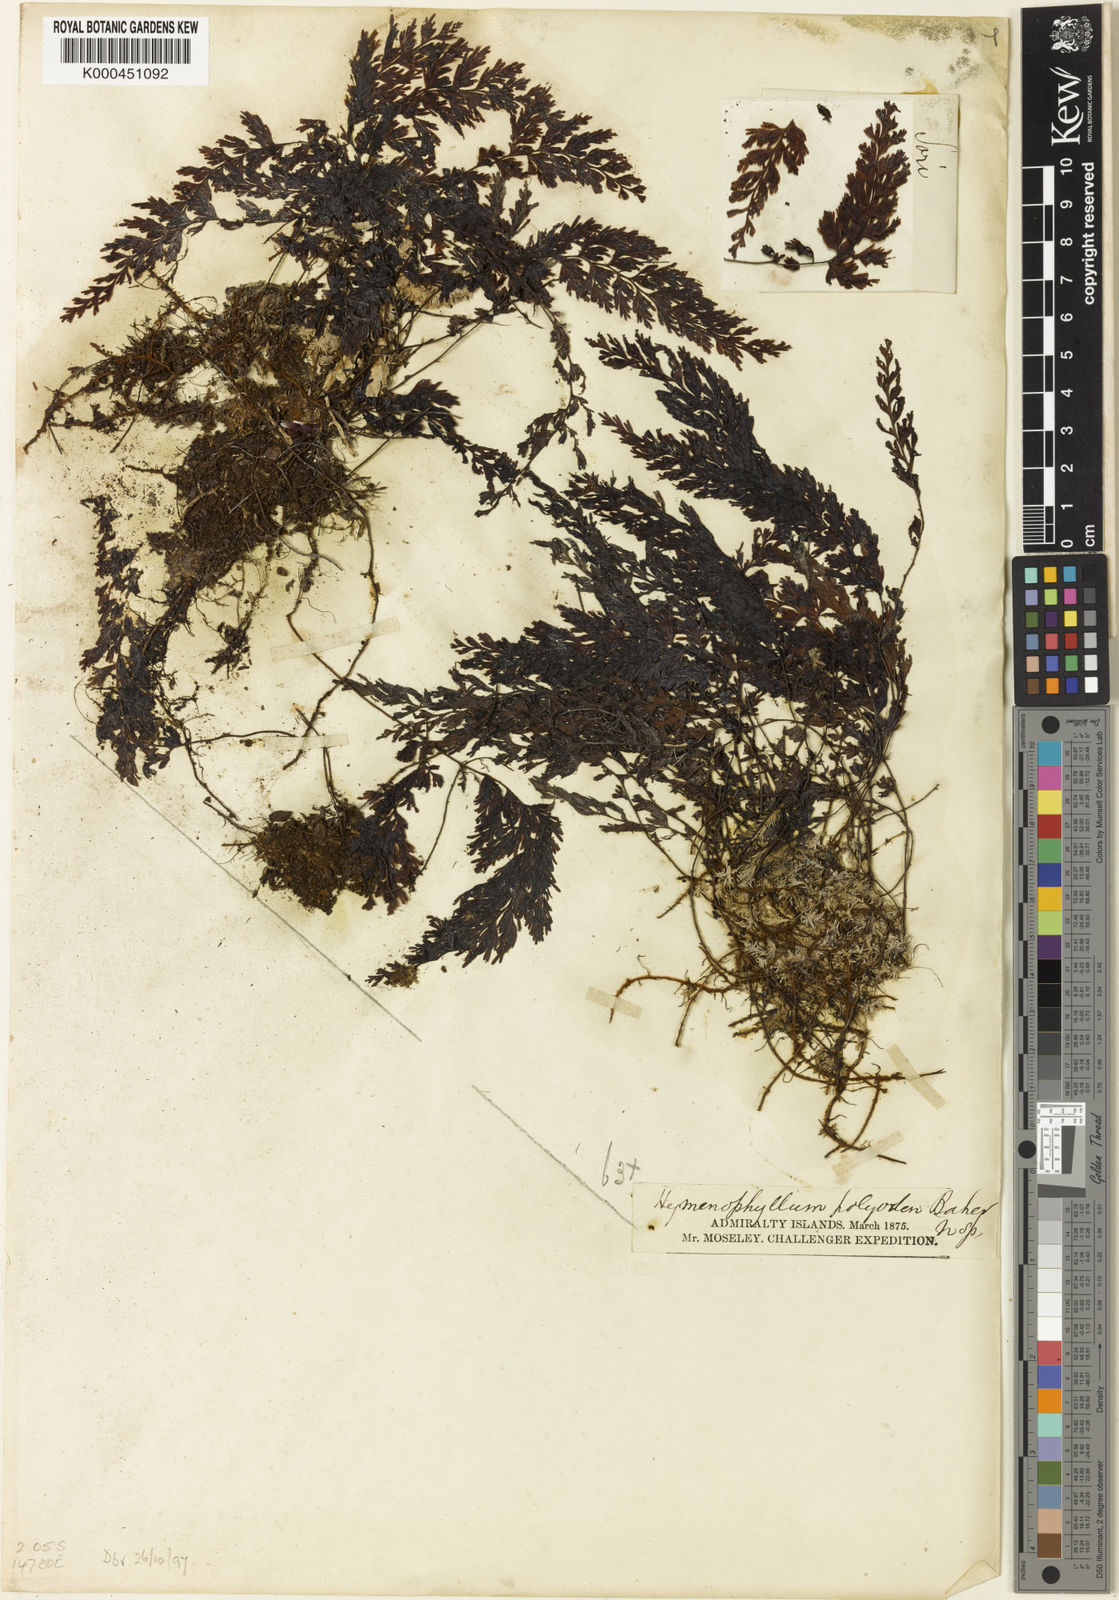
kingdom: Plantae
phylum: Tracheophyta
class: Polypodiopsida
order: Hymenophyllales
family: Hymenophyllaceae
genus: Hymenophyllum
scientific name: Hymenophyllum serrulatum
